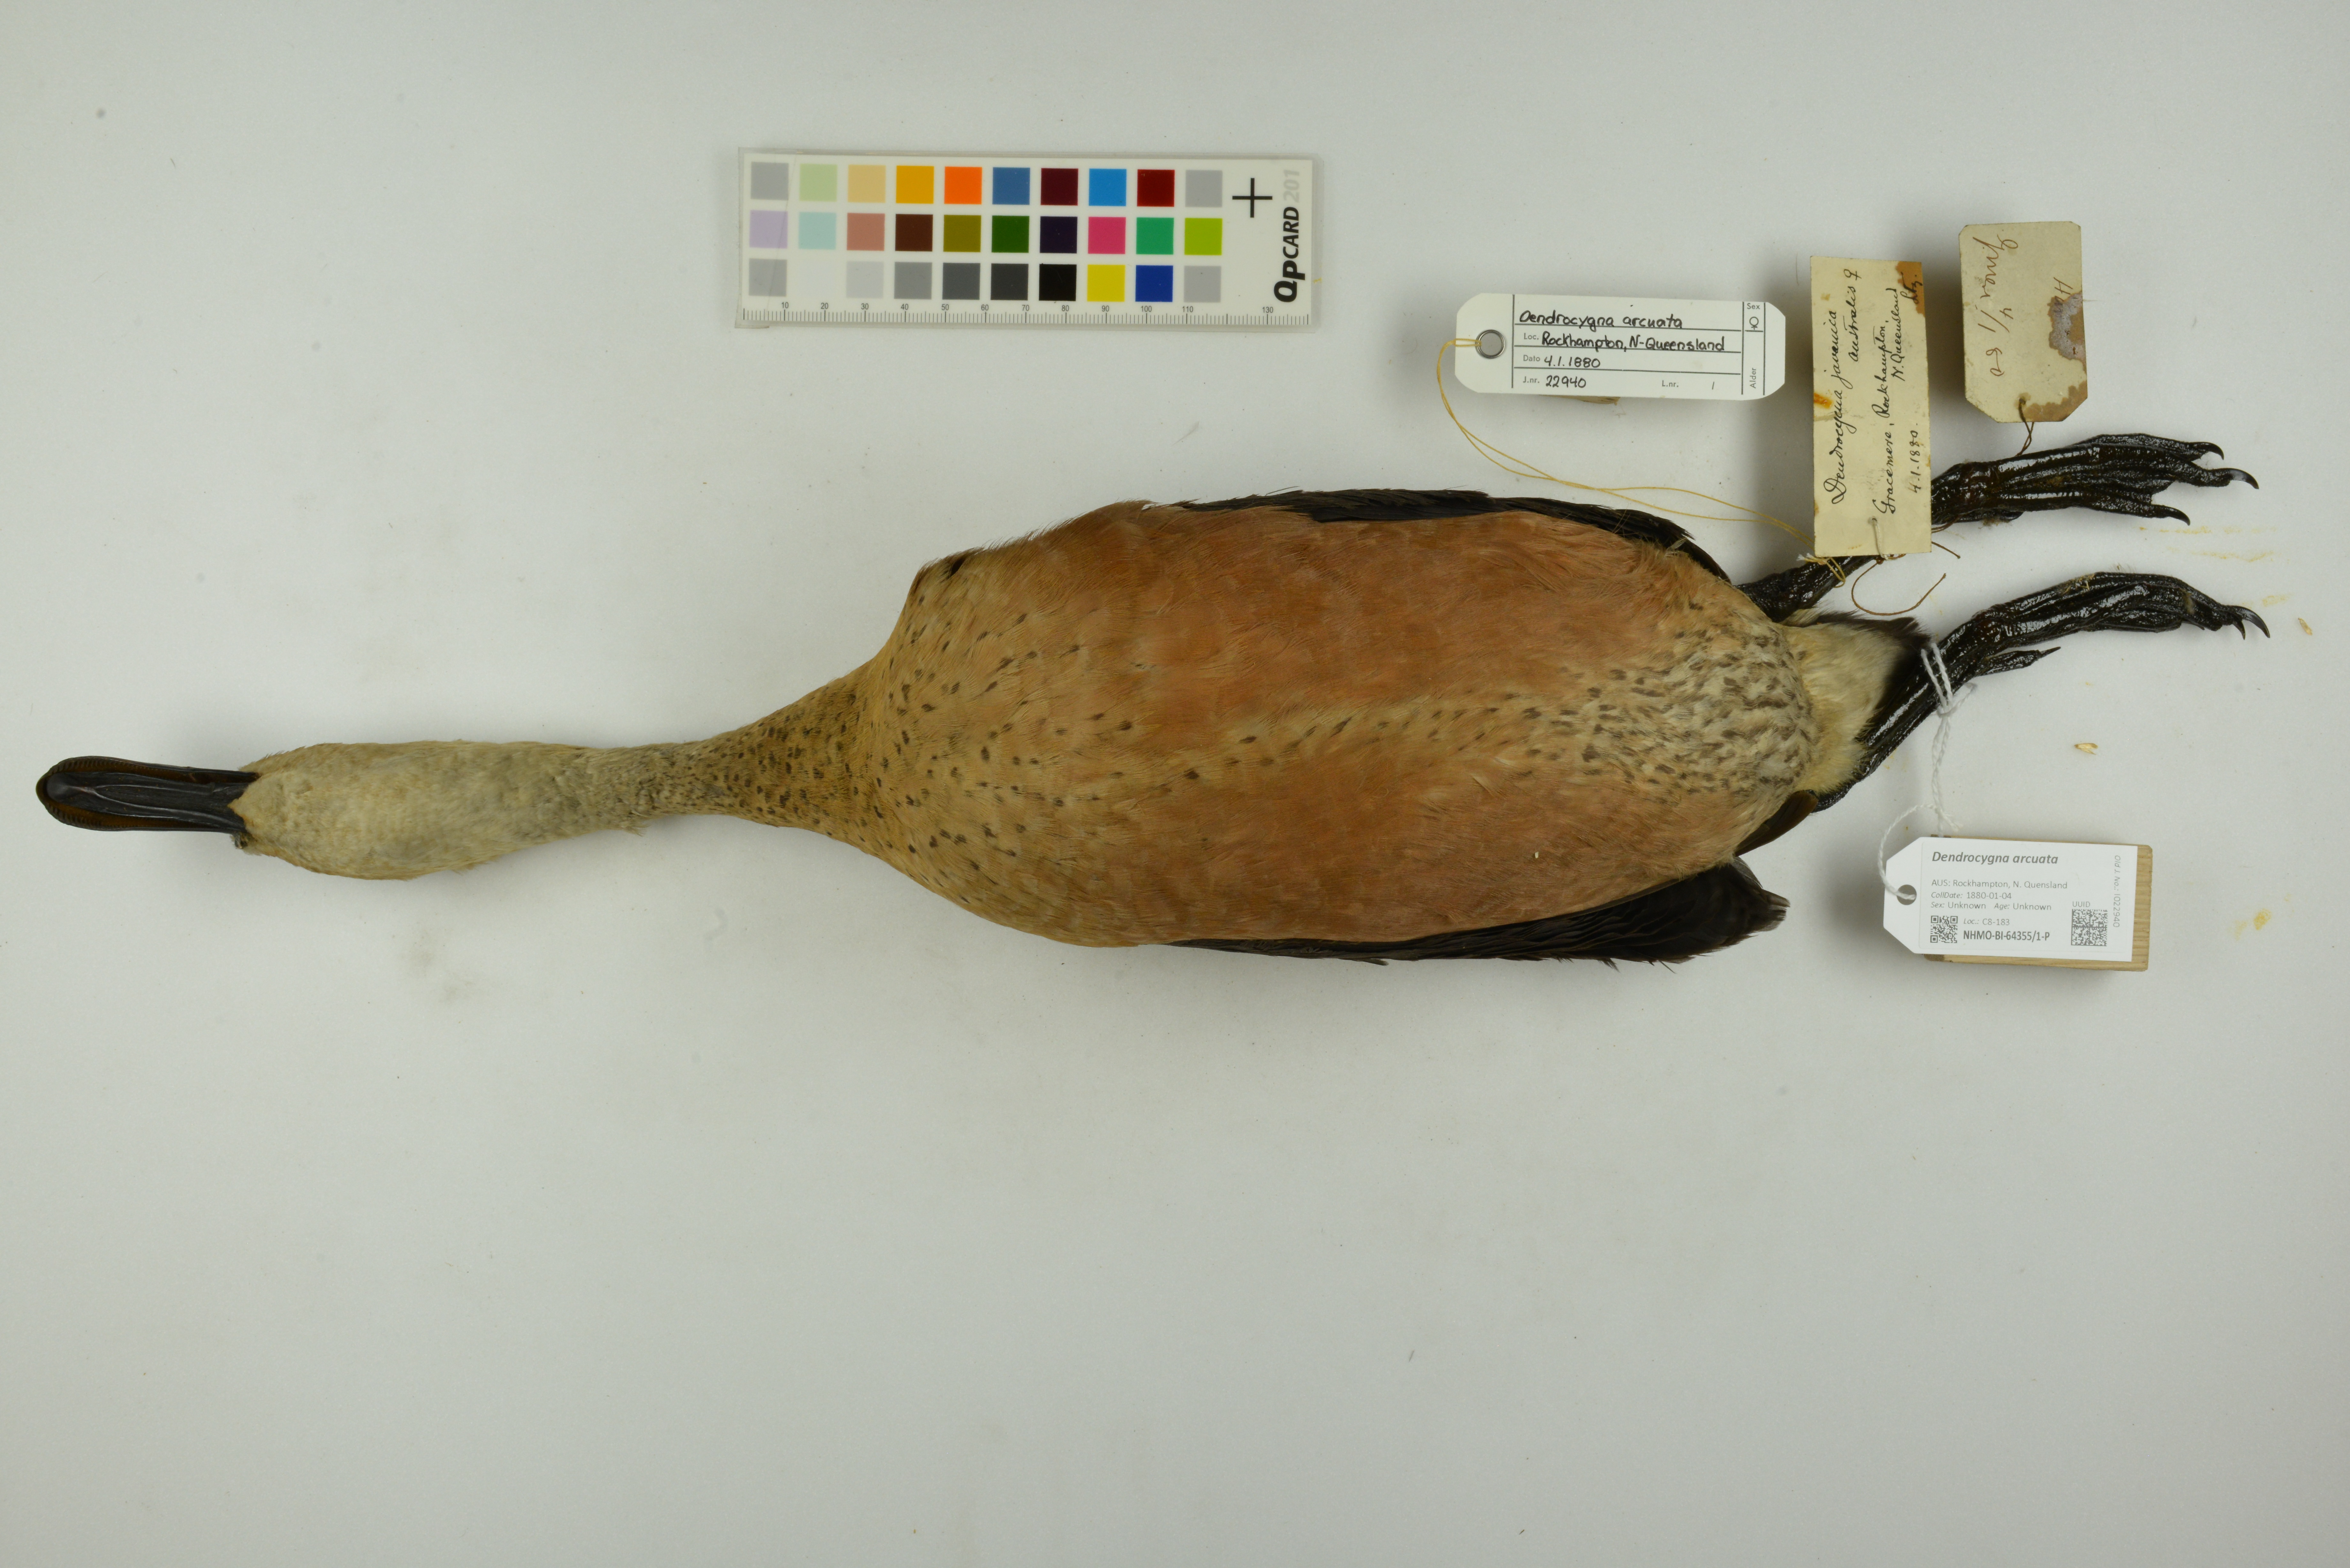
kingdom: Animalia
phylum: Chordata
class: Aves
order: Anseriformes
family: Anatidae
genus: Dendrocygna
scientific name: Dendrocygna arcuata
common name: Wandering whistling-duck
